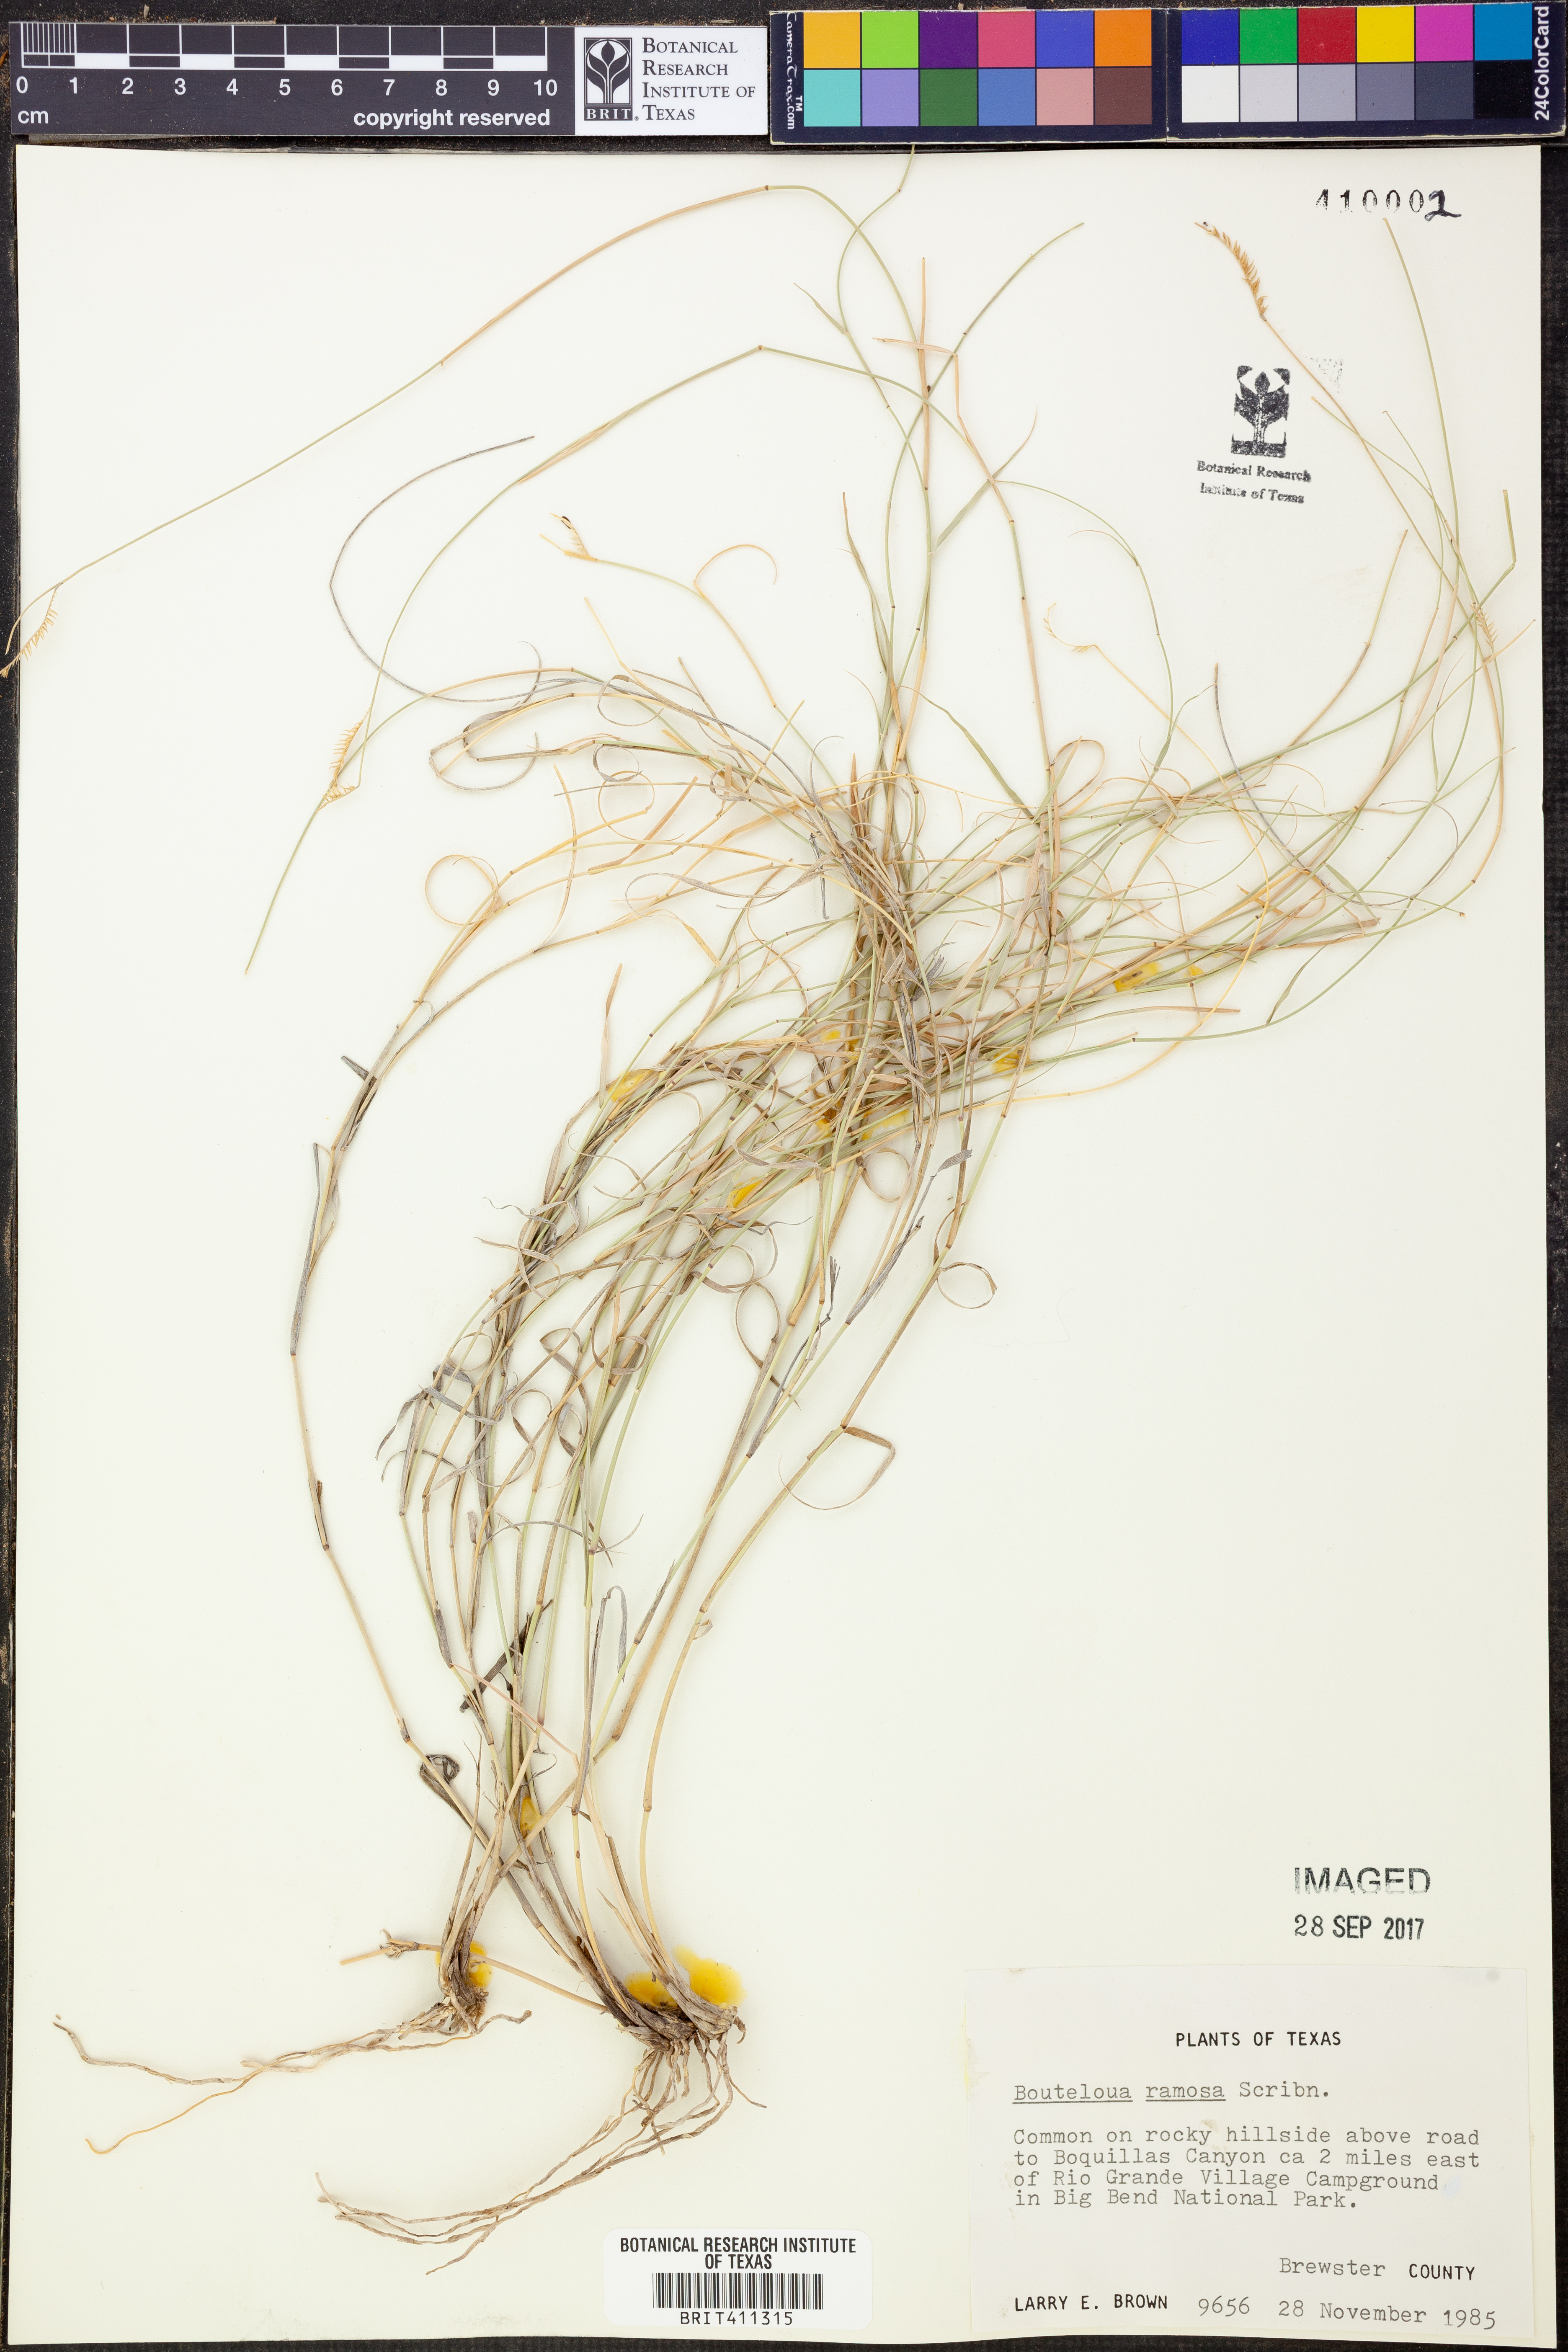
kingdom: Plantae
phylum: Tracheophyta
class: Liliopsida
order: Poales
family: Poaceae
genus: Bouteloua
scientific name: Bouteloua ramosa
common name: Chino grama
